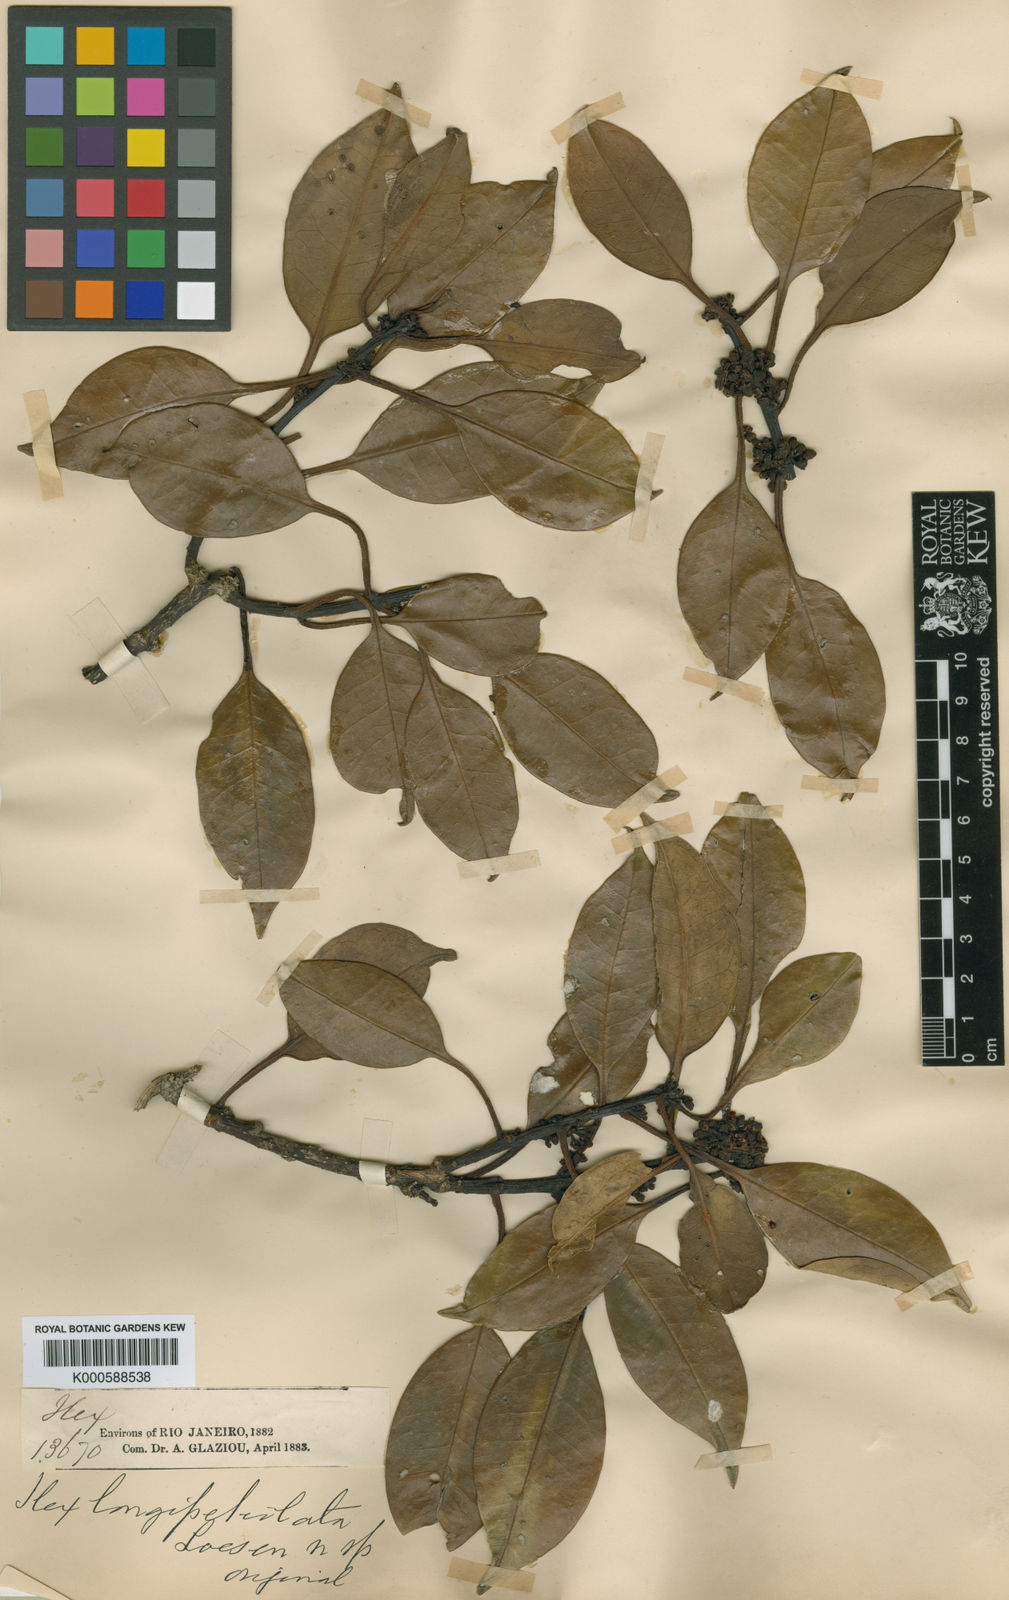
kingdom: Plantae
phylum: Tracheophyta
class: Magnoliopsida
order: Aquifoliales
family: Aquifoliaceae
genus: Ilex
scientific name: Ilex longipetiolata
